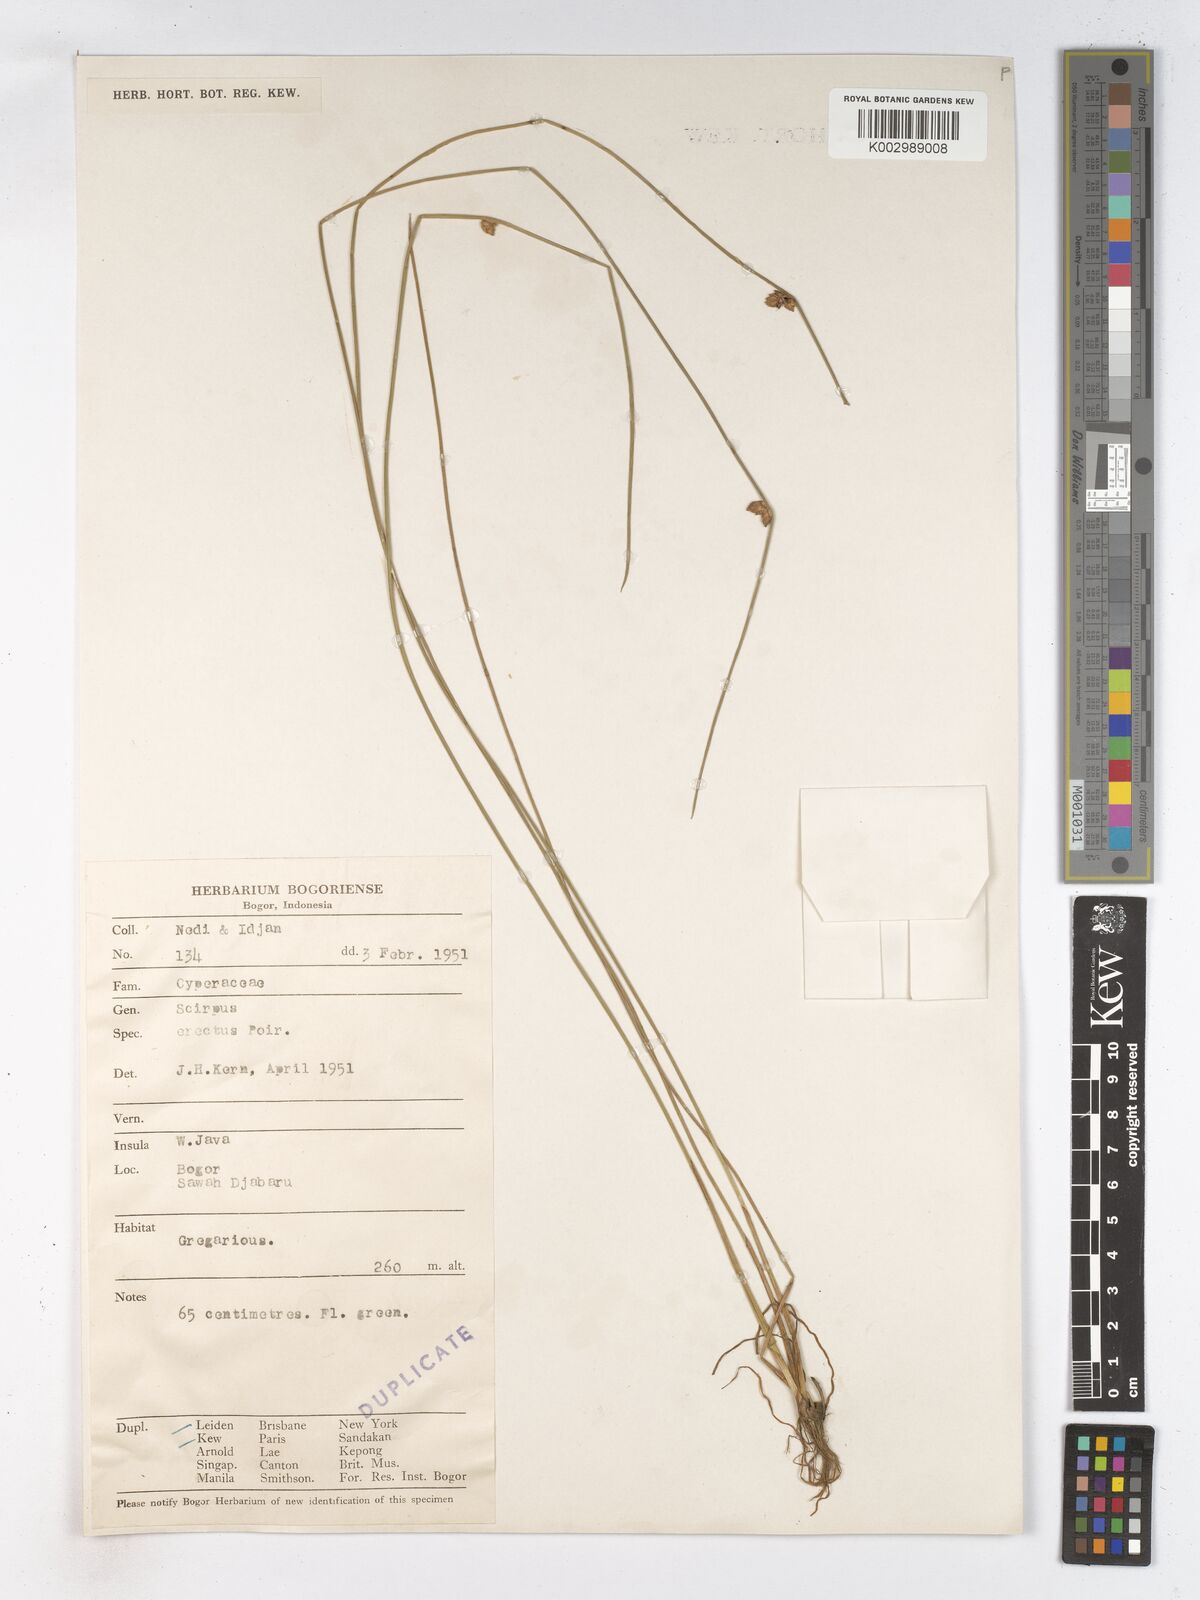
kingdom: Plantae
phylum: Tracheophyta
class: Liliopsida
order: Poales
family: Cyperaceae
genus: Schoenoplectiella
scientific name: Schoenoplectiella juncoides
